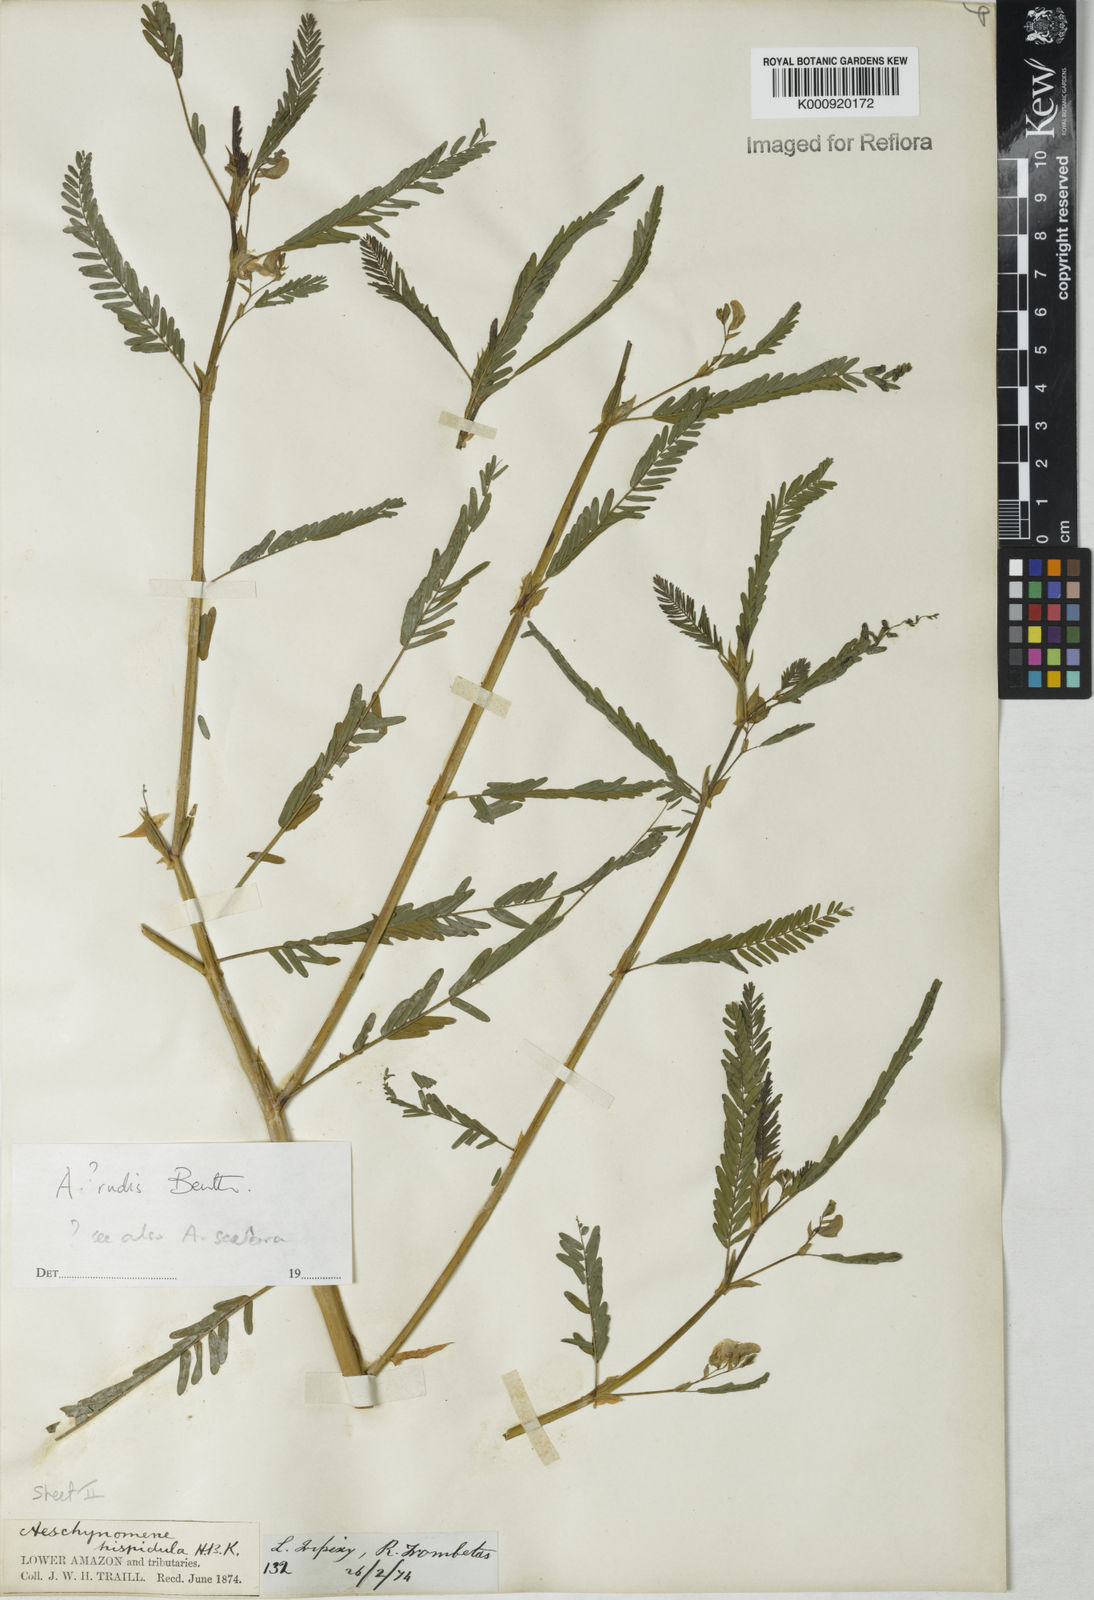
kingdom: Plantae
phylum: Tracheophyta
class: Magnoliopsida
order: Fabales
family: Fabaceae
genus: Aeschynomene
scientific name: Aeschynomene rudis
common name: Rough joint-vetch
